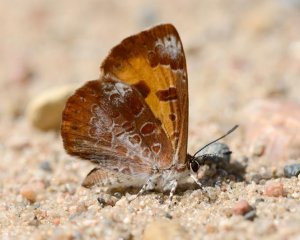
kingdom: Animalia
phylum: Arthropoda
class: Insecta
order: Lepidoptera
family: Lycaenidae
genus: Feniseca
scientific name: Feniseca tarquinius
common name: Harvester
